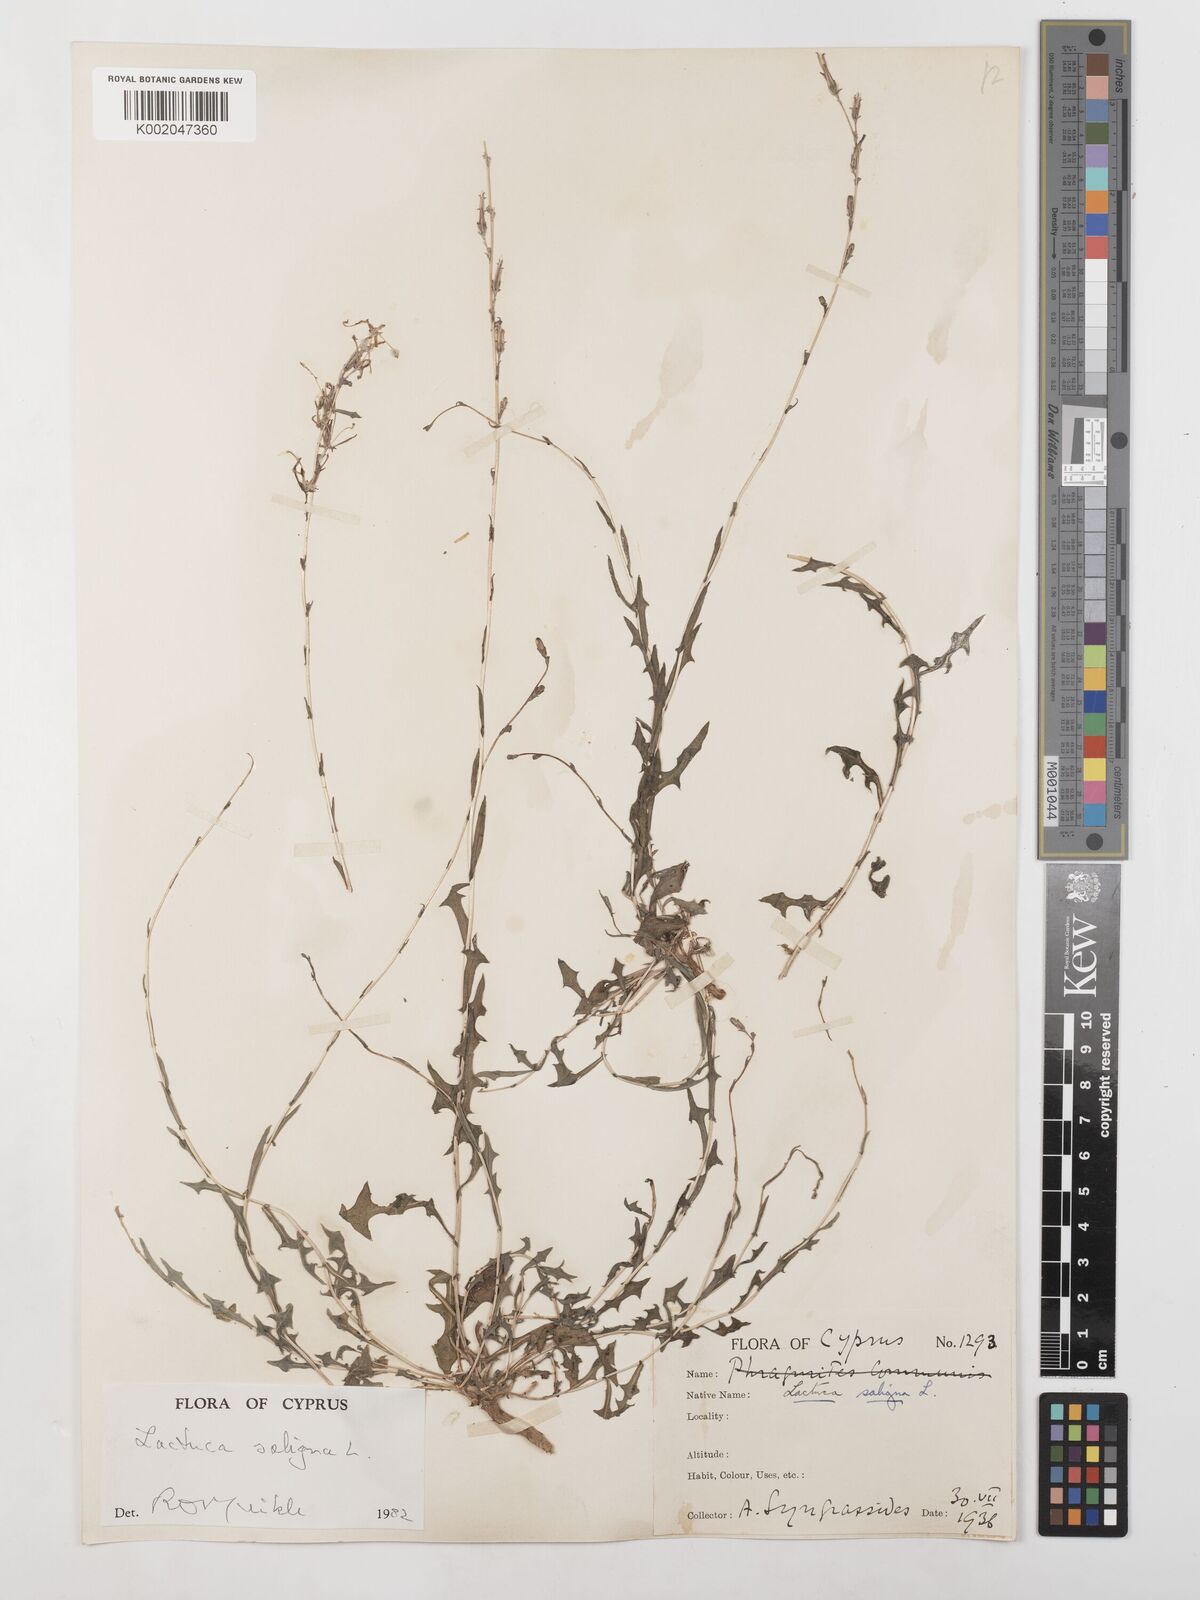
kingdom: Plantae
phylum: Tracheophyta
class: Magnoliopsida
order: Asterales
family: Asteraceae
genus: Lactuca
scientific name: Lactuca saligna
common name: Wild lettuce
